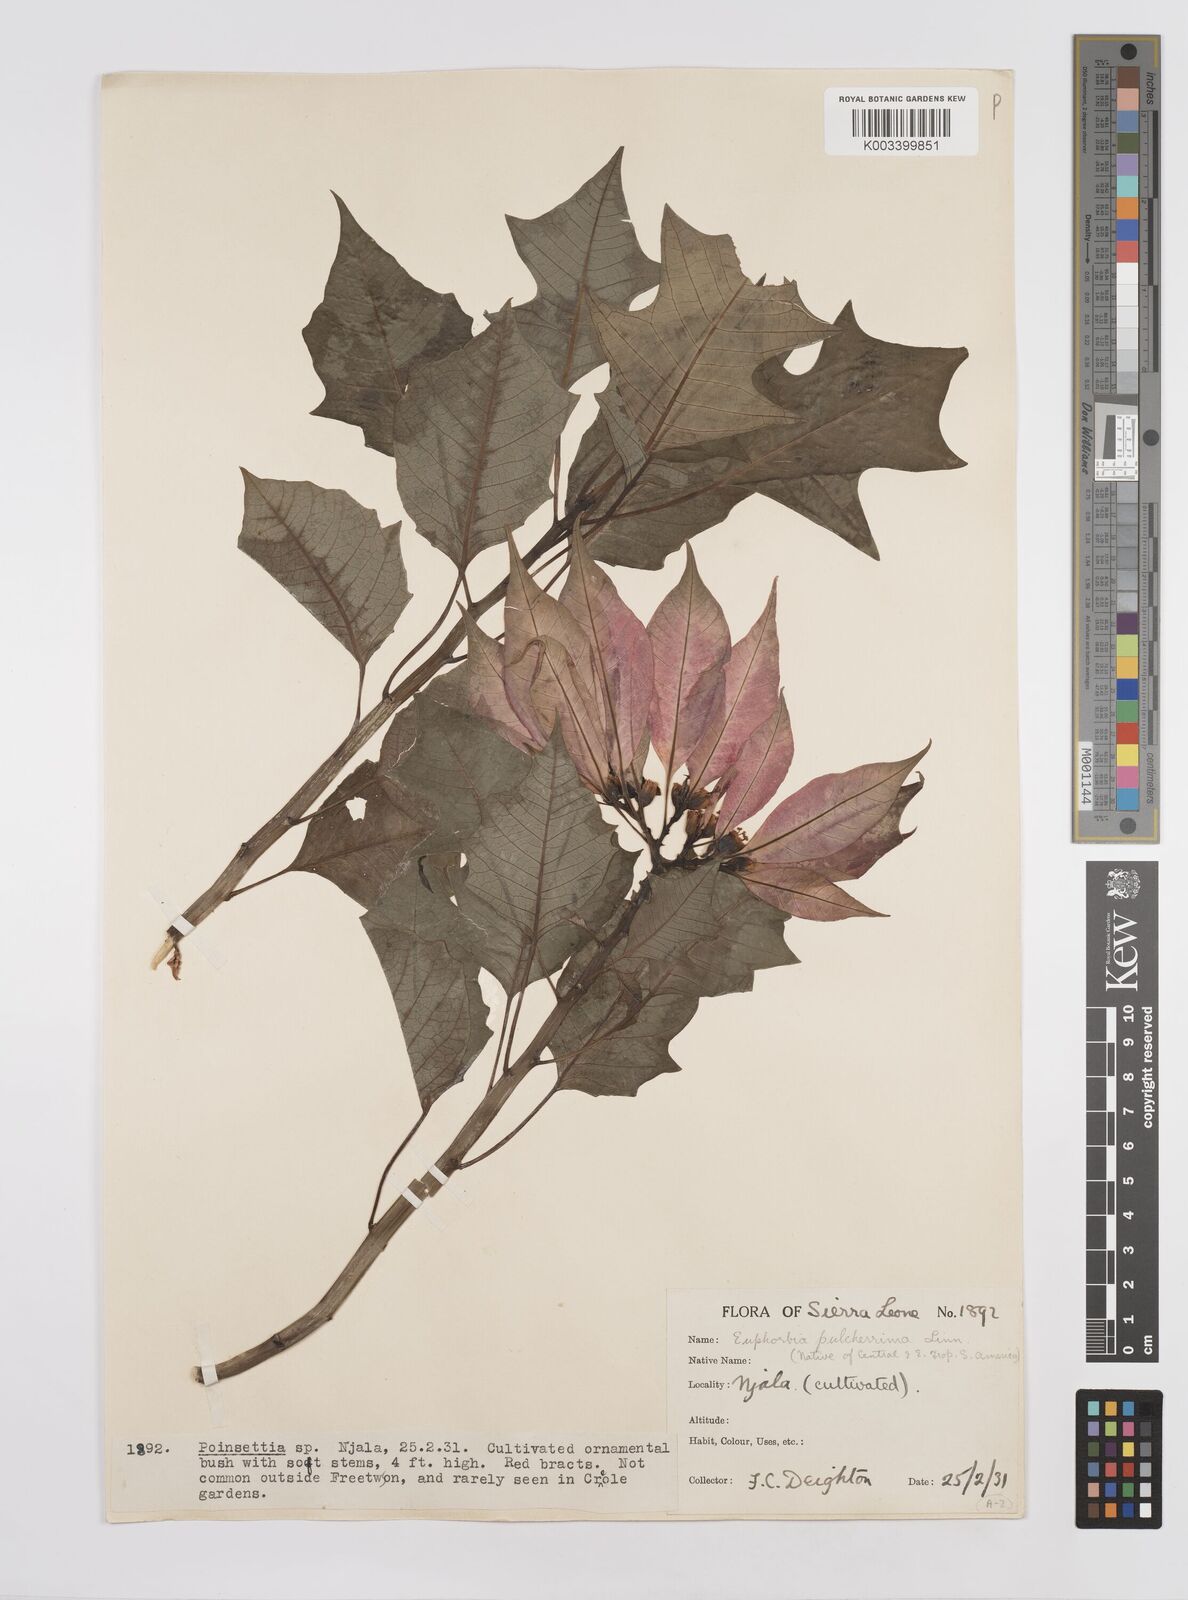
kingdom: Plantae
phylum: Tracheophyta
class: Magnoliopsida
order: Malpighiales
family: Euphorbiaceae
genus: Euphorbia
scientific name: Euphorbia pulcherrima
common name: Christmas-flower
